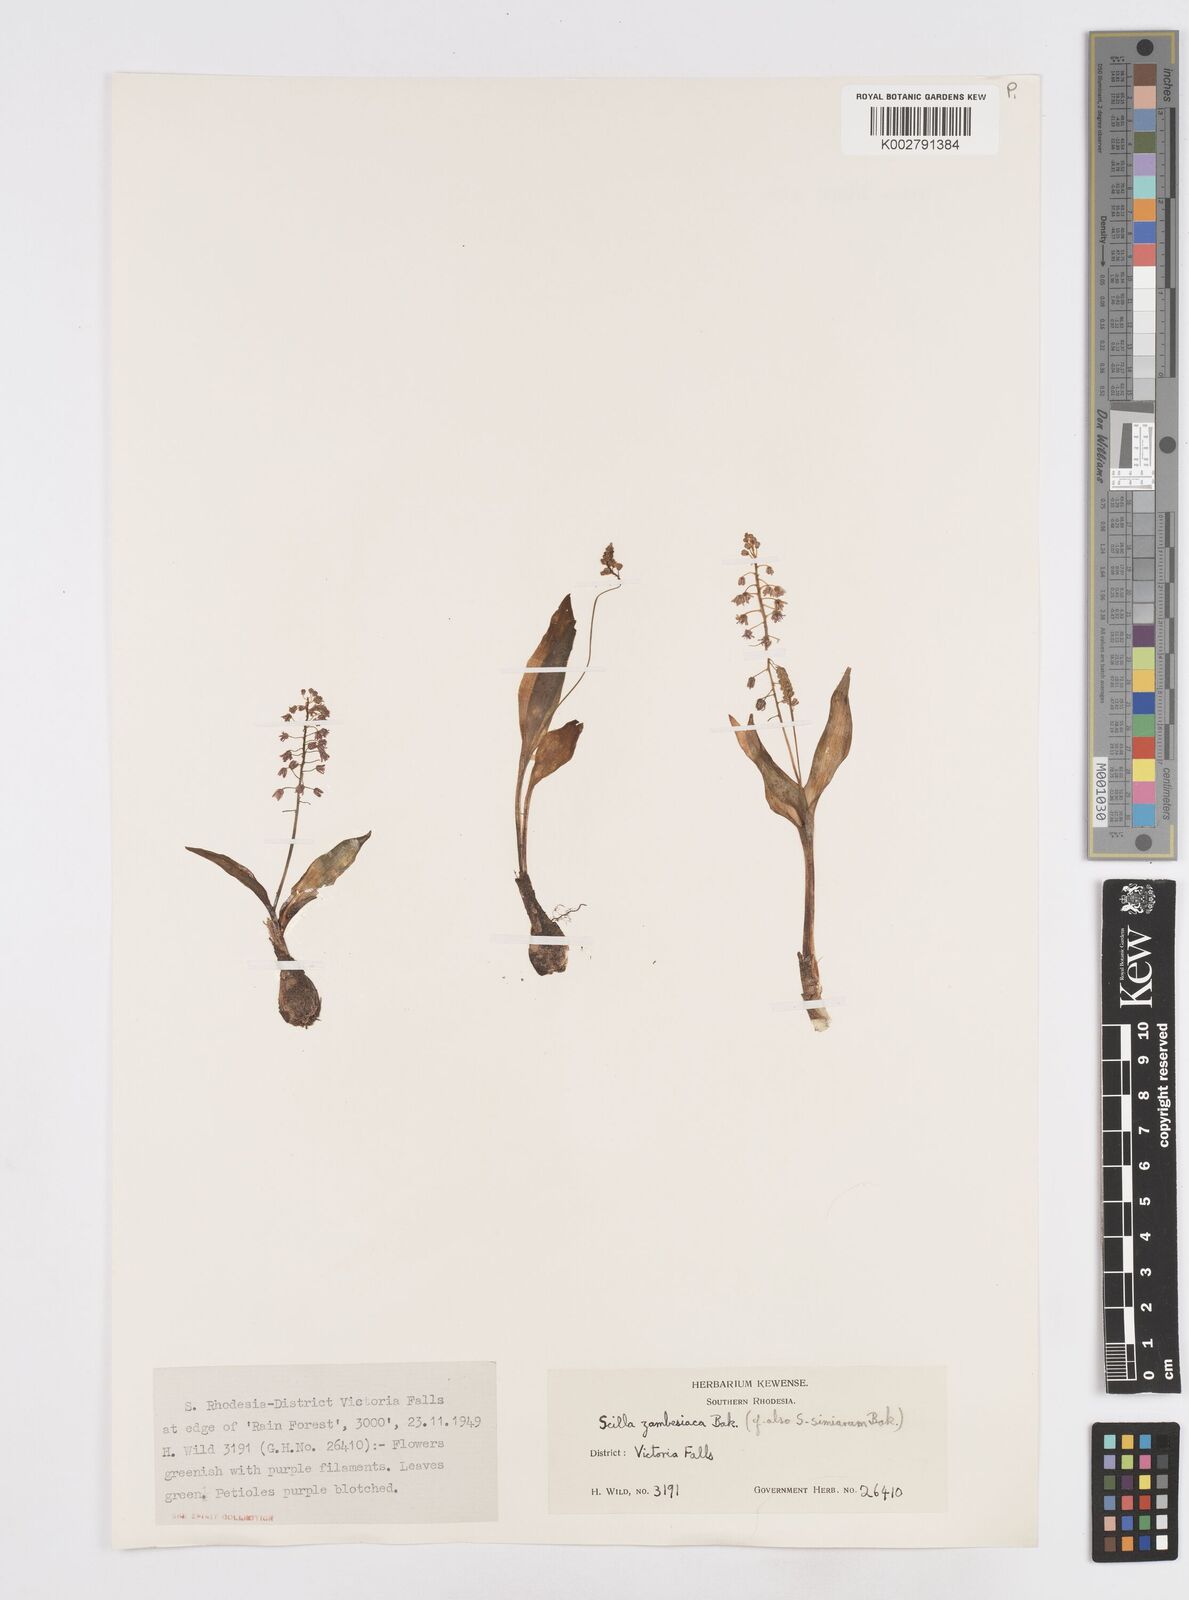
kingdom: Plantae
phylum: Tracheophyta
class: Liliopsida
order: Asparagales
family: Asparagaceae
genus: Ledebouria
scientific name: Ledebouria zambesiaca
